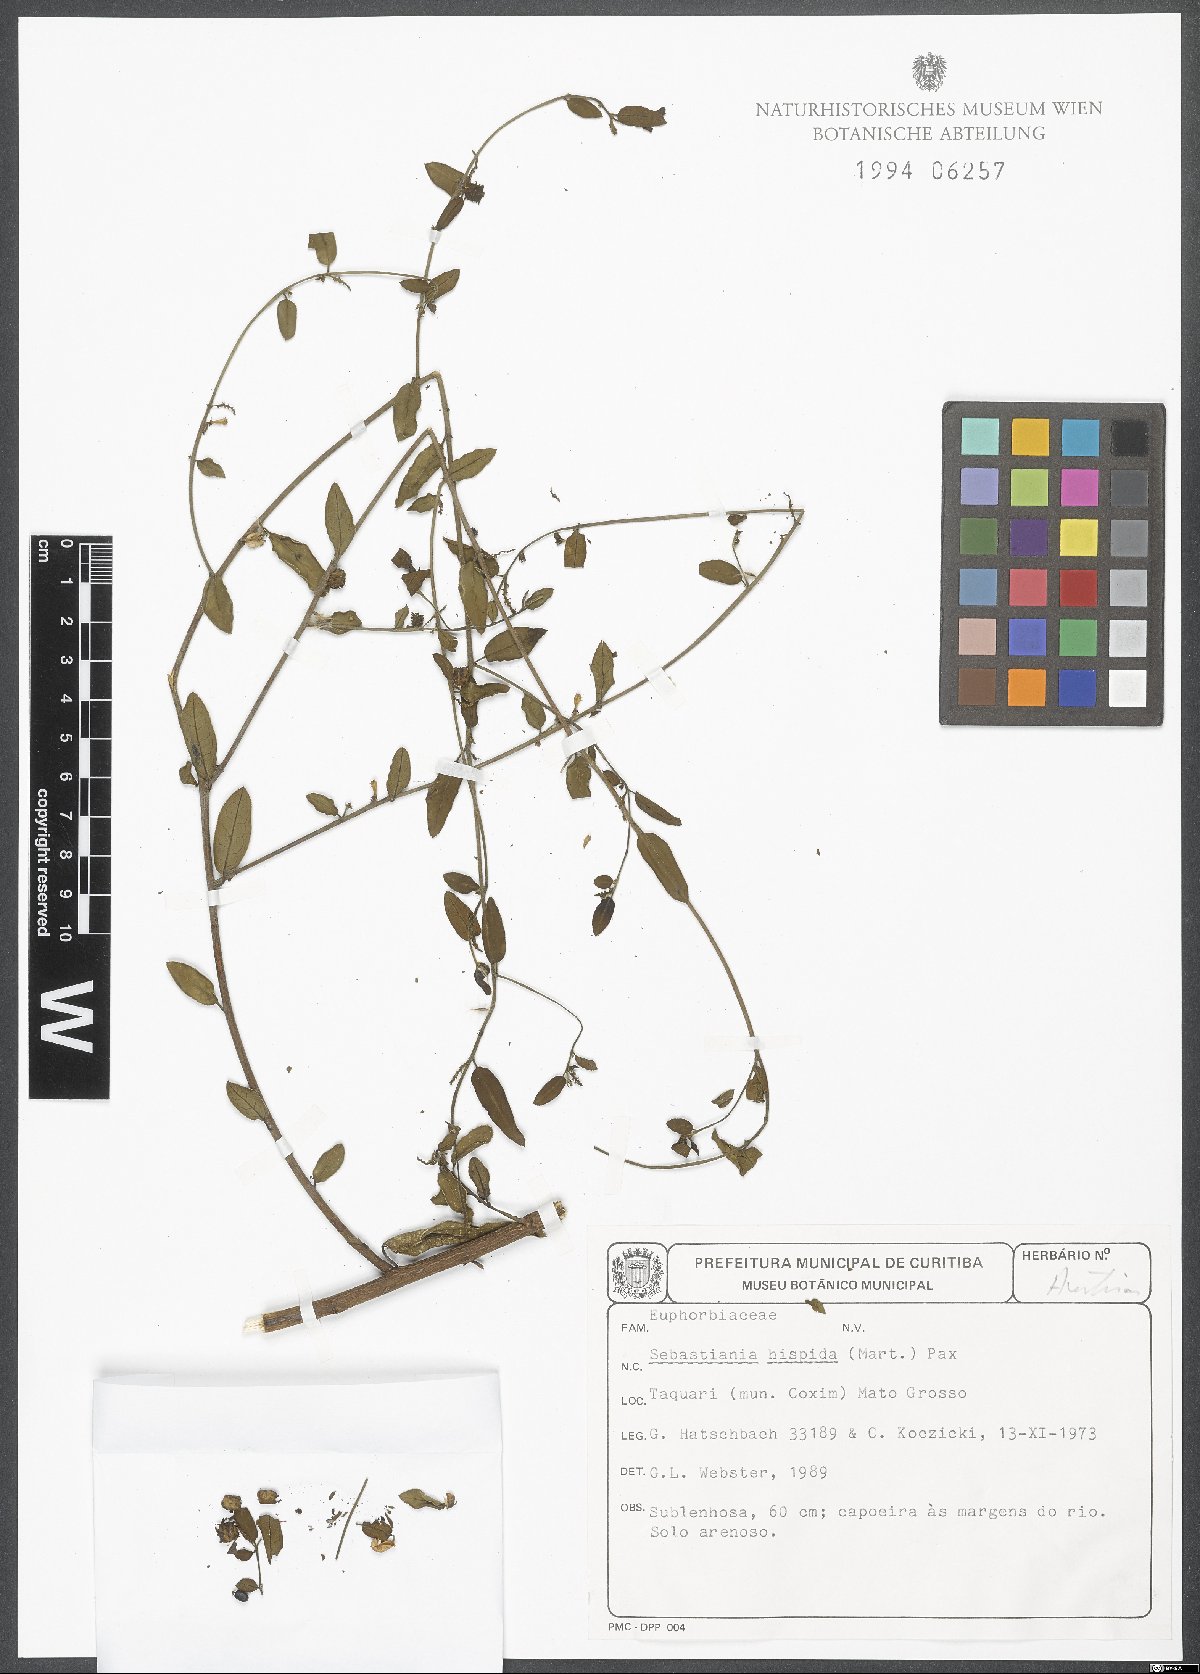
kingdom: Plantae
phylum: Tracheophyta
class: Magnoliopsida
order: Malpighiales
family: Euphorbiaceae
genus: Microstachys
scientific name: Microstachys hispida
